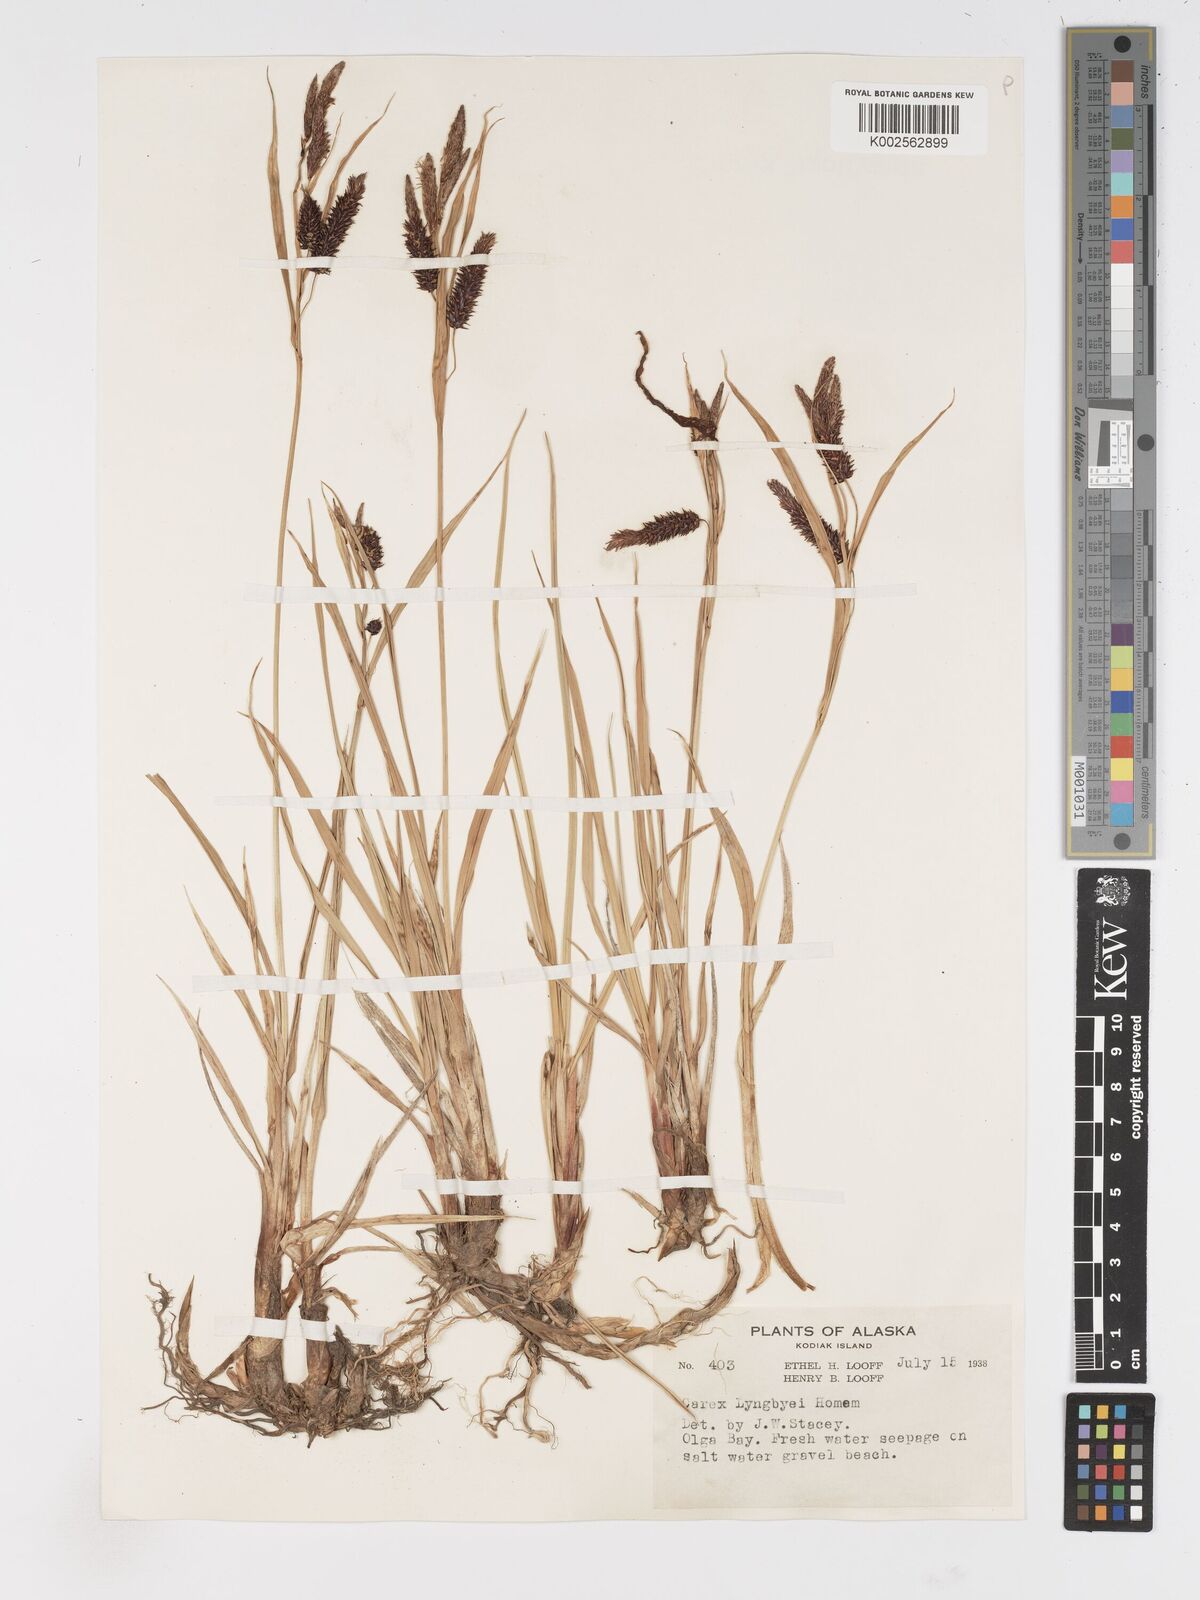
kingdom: Plantae
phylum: Tracheophyta
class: Liliopsida
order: Poales
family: Cyperaceae
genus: Carex
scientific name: Carex lyngbyei
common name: Lyngbye's sedge
